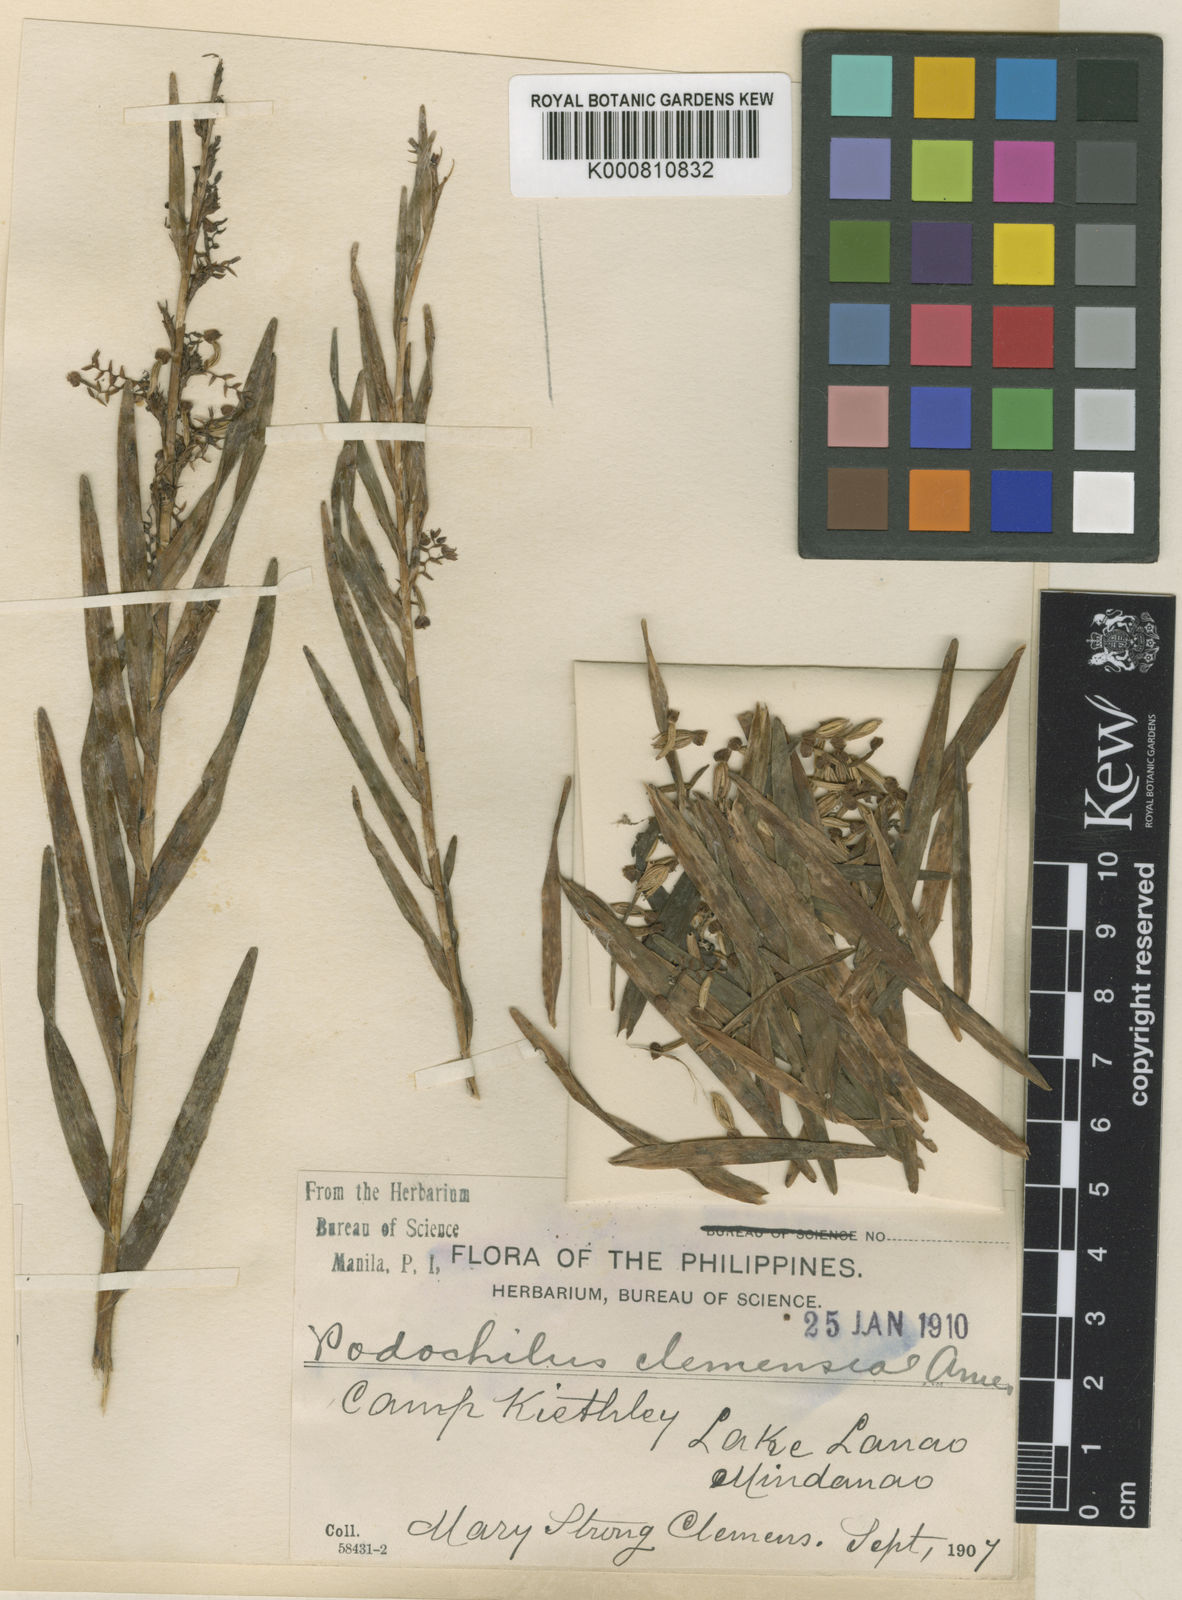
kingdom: Plantae
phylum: Tracheophyta
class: Liliopsida
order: Asparagales
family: Orchidaceae
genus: Appendicula
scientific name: Appendicula clemensiae
